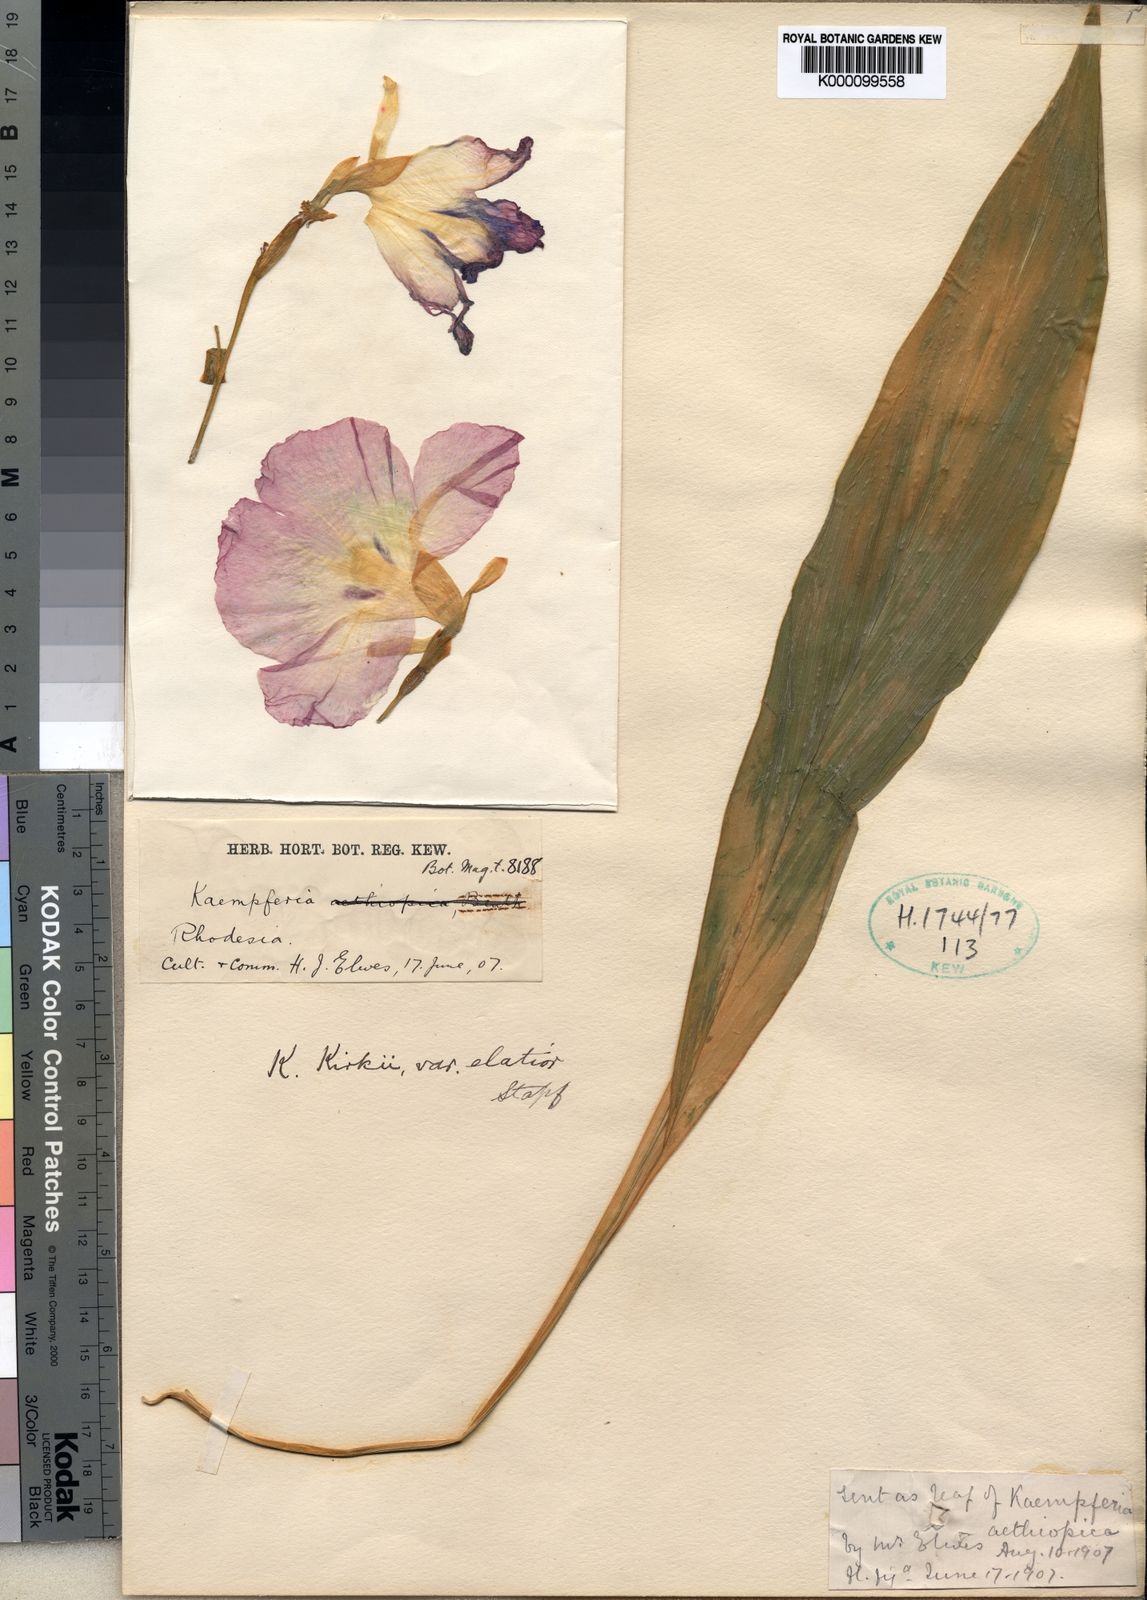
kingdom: Plantae
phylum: Tracheophyta
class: Liliopsida
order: Zingiberales
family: Zingiberaceae
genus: Siphonochilus
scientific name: Siphonochilus kirkii
